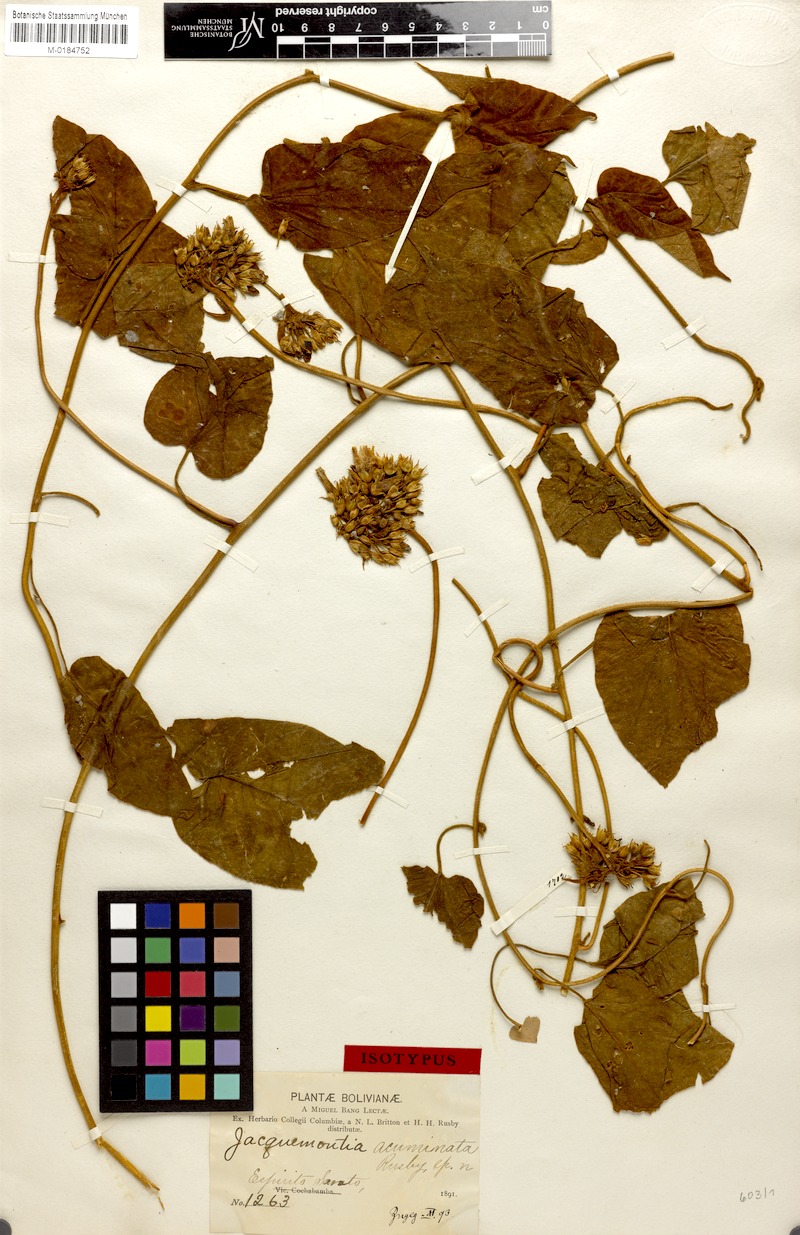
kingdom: Plantae
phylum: Tracheophyta
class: Magnoliopsida
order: Solanales
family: Convolvulaceae
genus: Jacquemontia
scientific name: Jacquemontia acuminata
